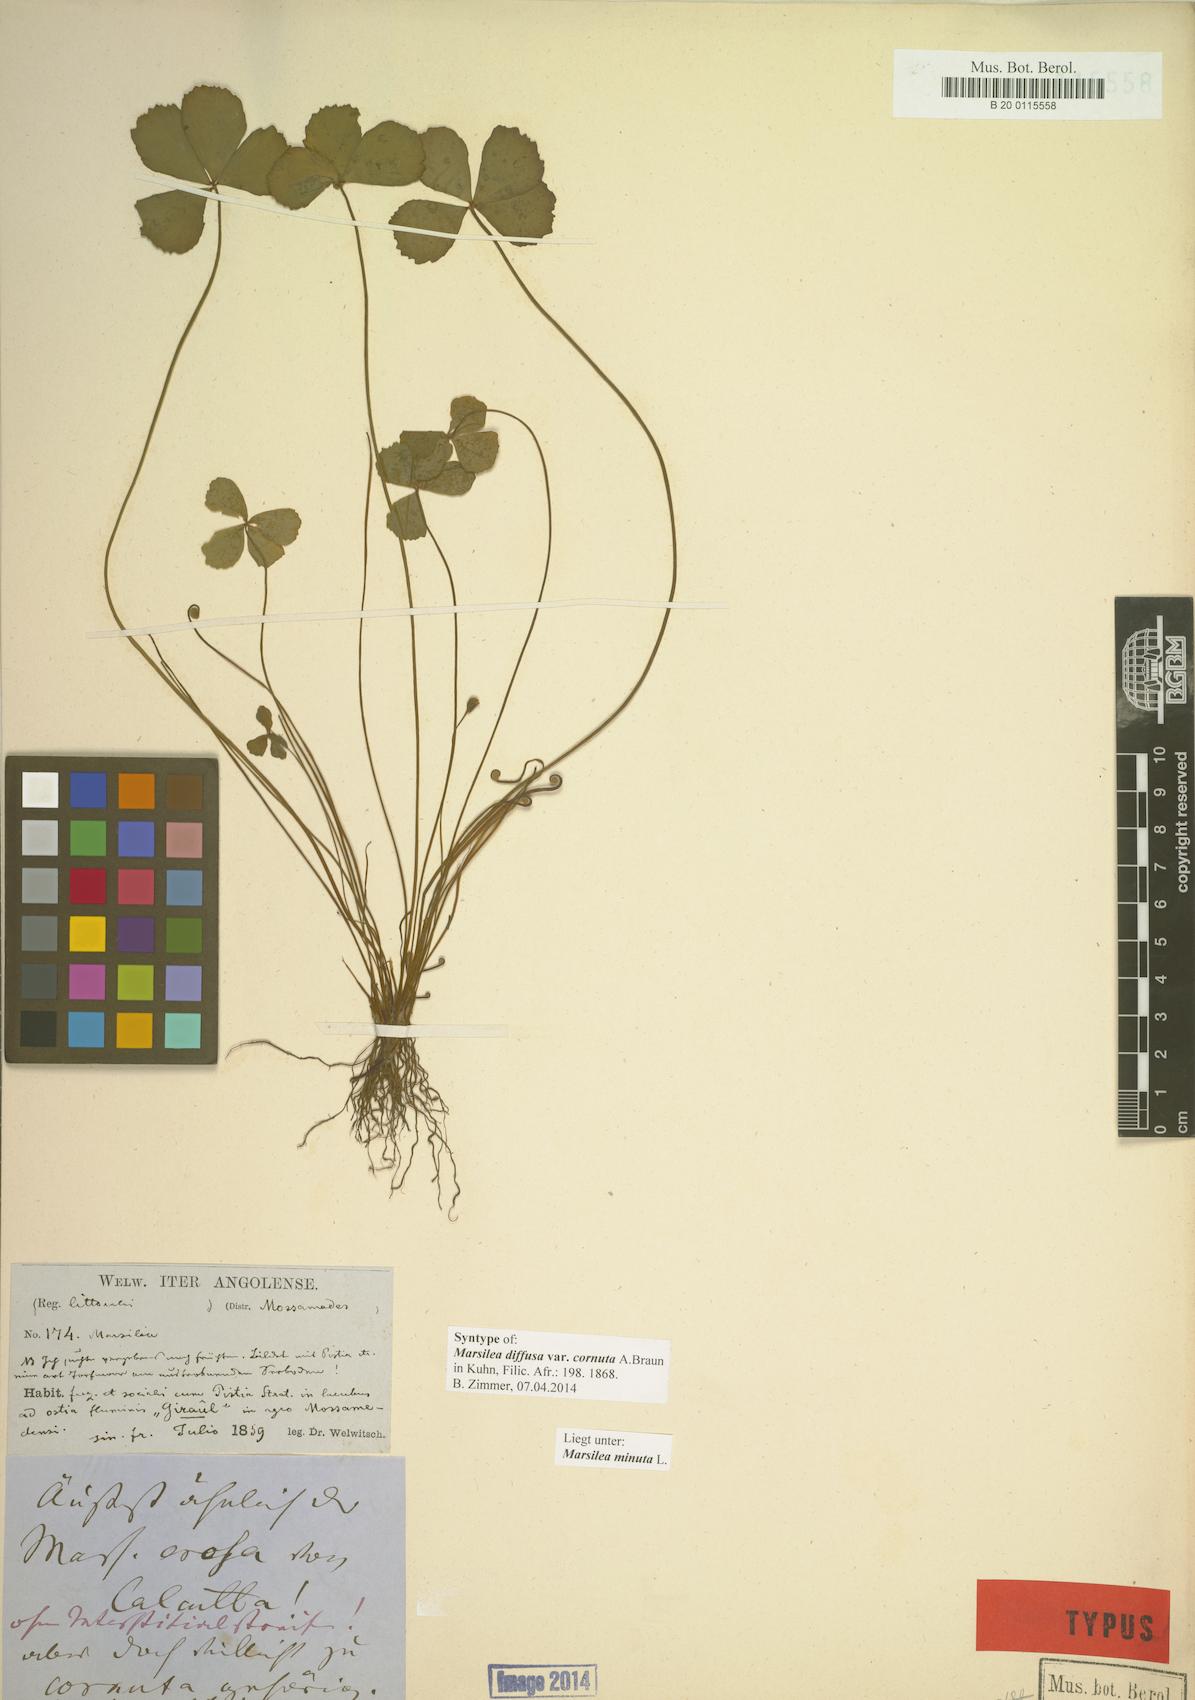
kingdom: Plantae
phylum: Tracheophyta
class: Polypodiopsida
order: Salviniales
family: Marsileaceae
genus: Marsilea
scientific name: Marsilea minuta
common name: Dwarf waterclover
